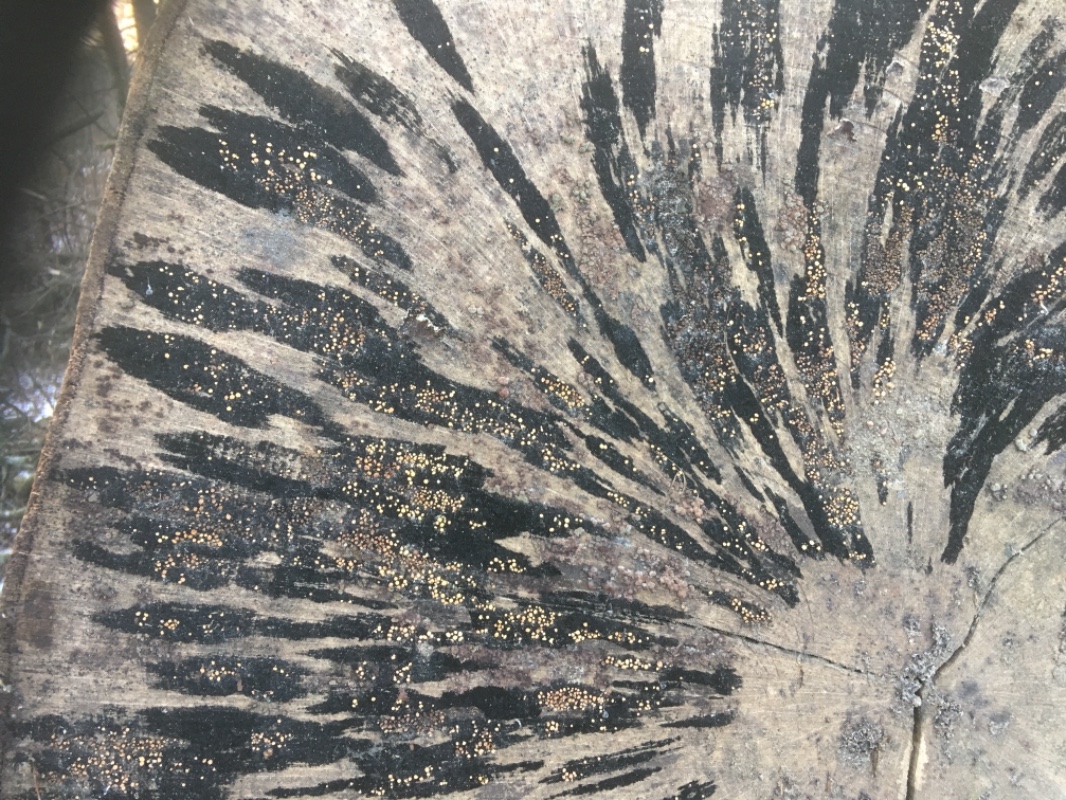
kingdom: Fungi
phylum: Ascomycota
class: Leotiomycetes
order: Helotiales
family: Helotiaceae
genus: Bispora
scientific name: Bispora pallescens
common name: måtte-snitskive
